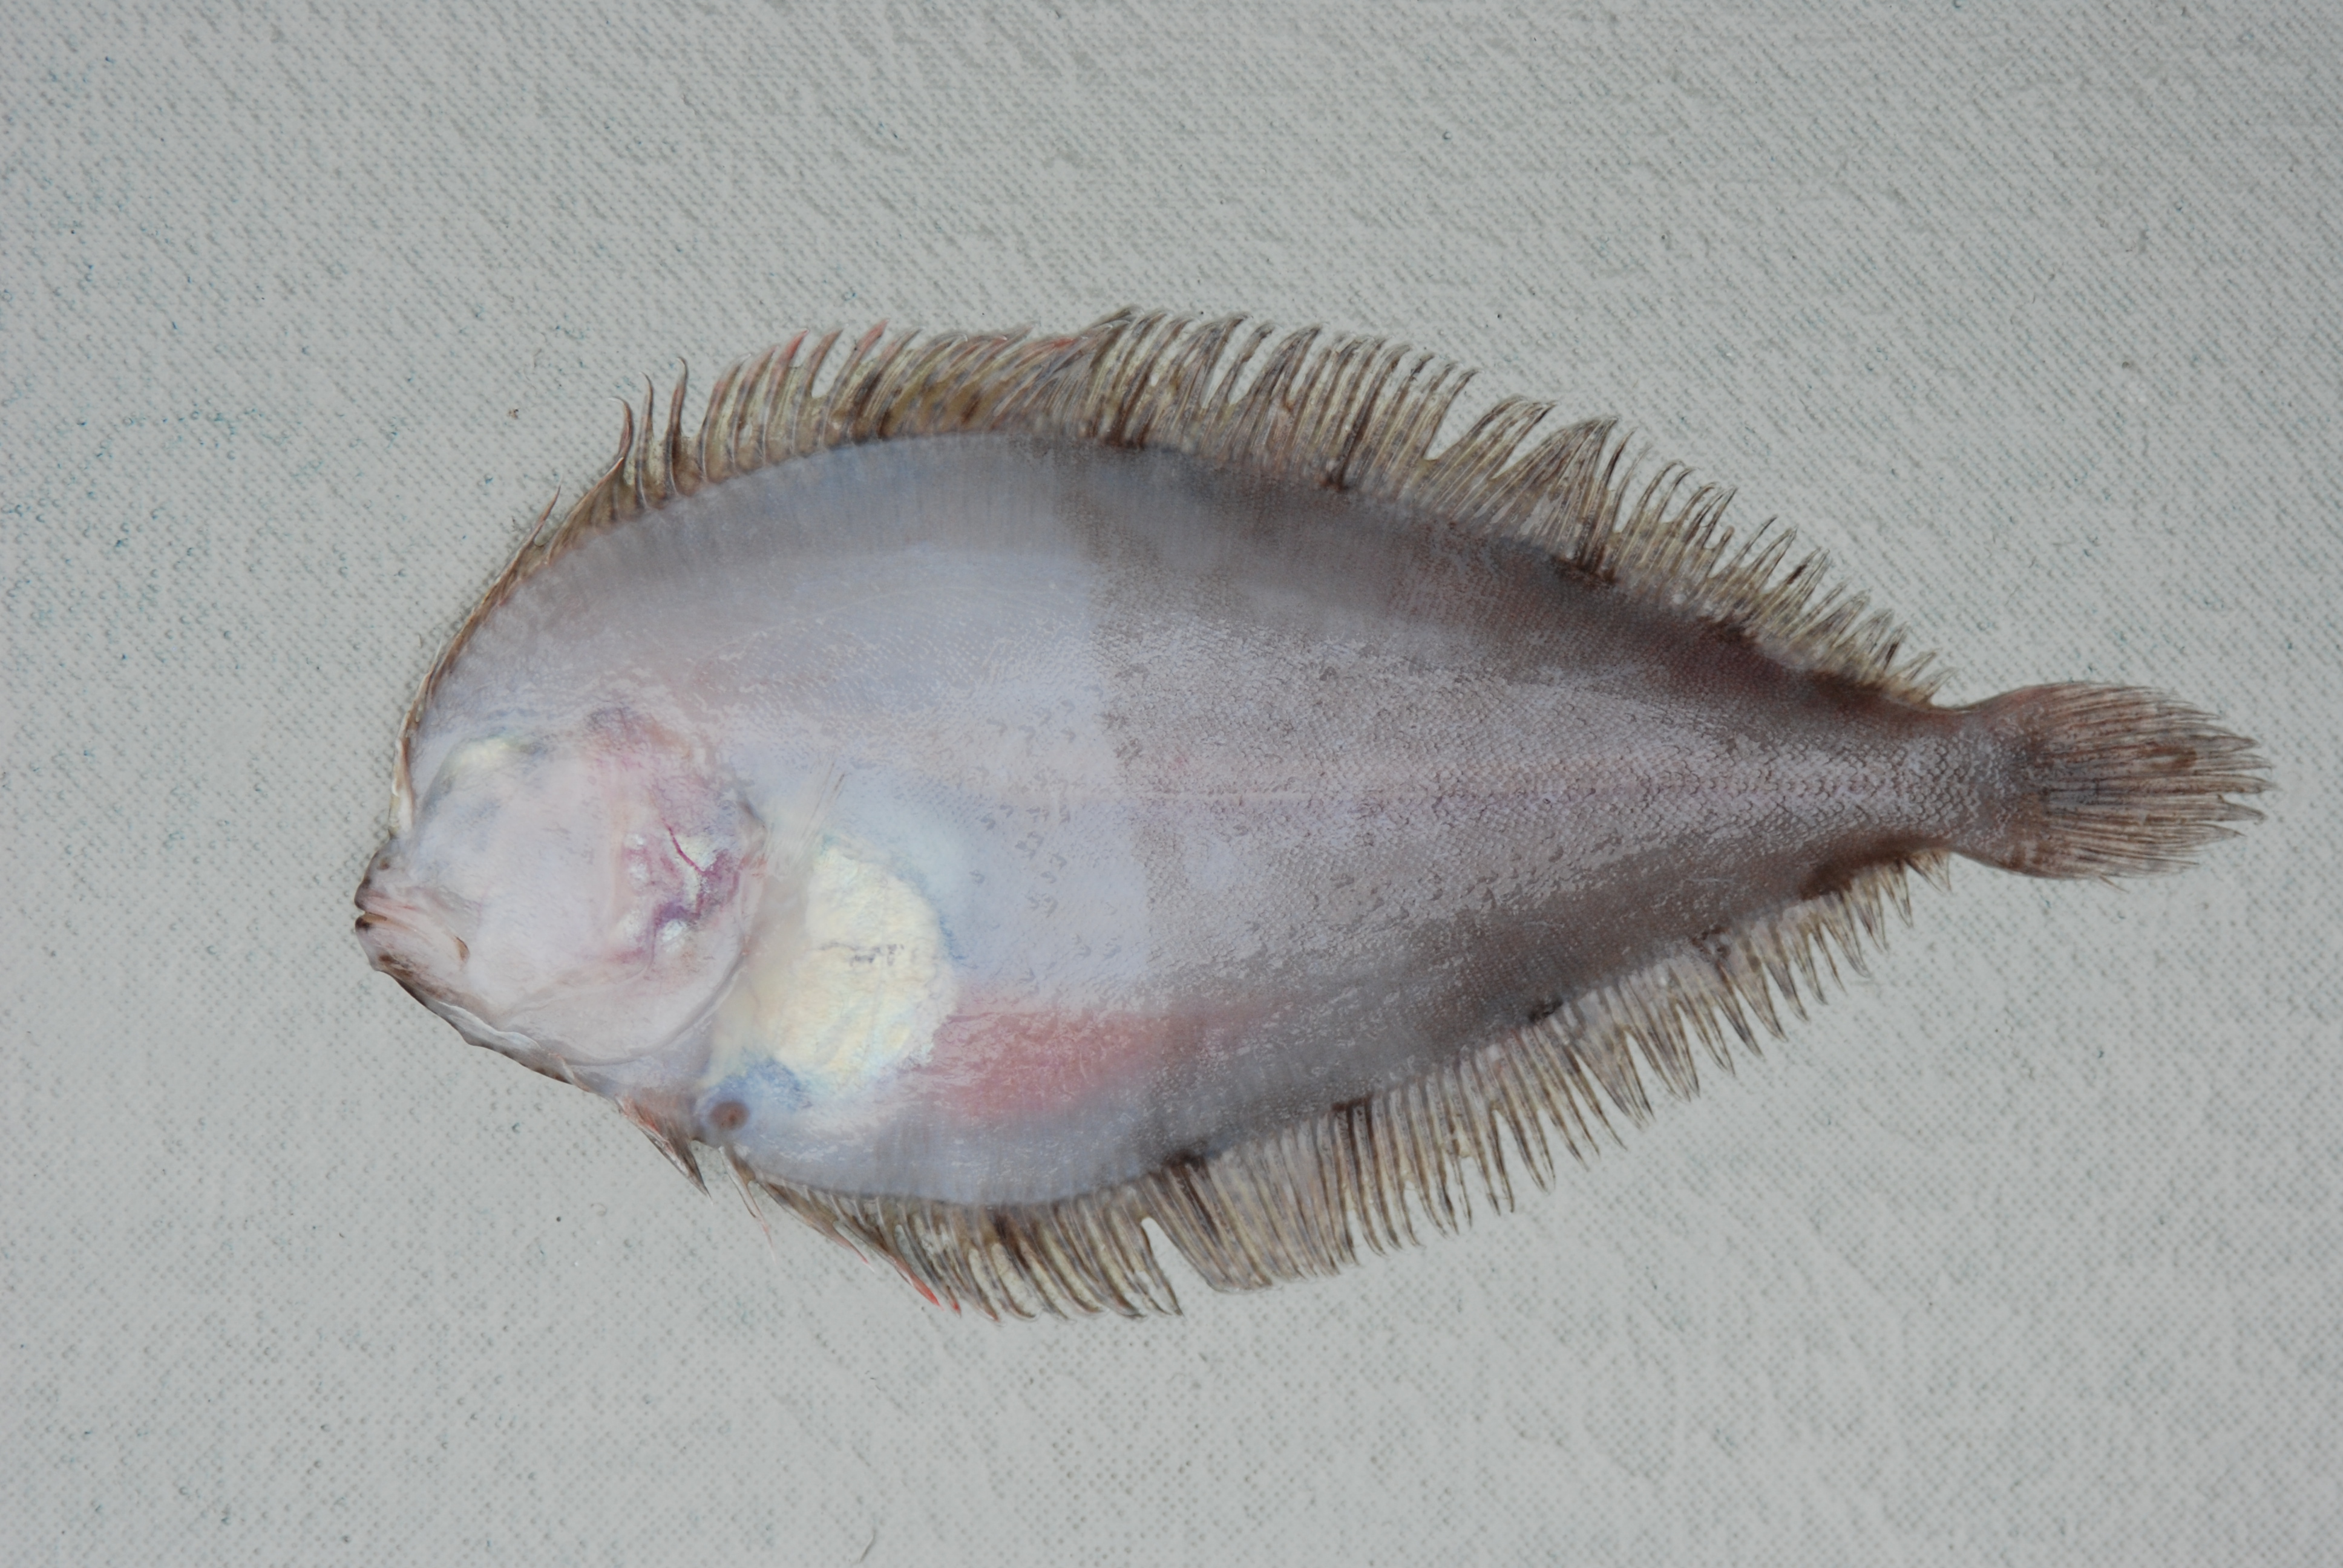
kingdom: Animalia
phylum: Chordata
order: Pleuronectiformes
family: Paralichthyidae
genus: Pseudorhombus
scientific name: Pseudorhombus natalensis
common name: Natal flounder
